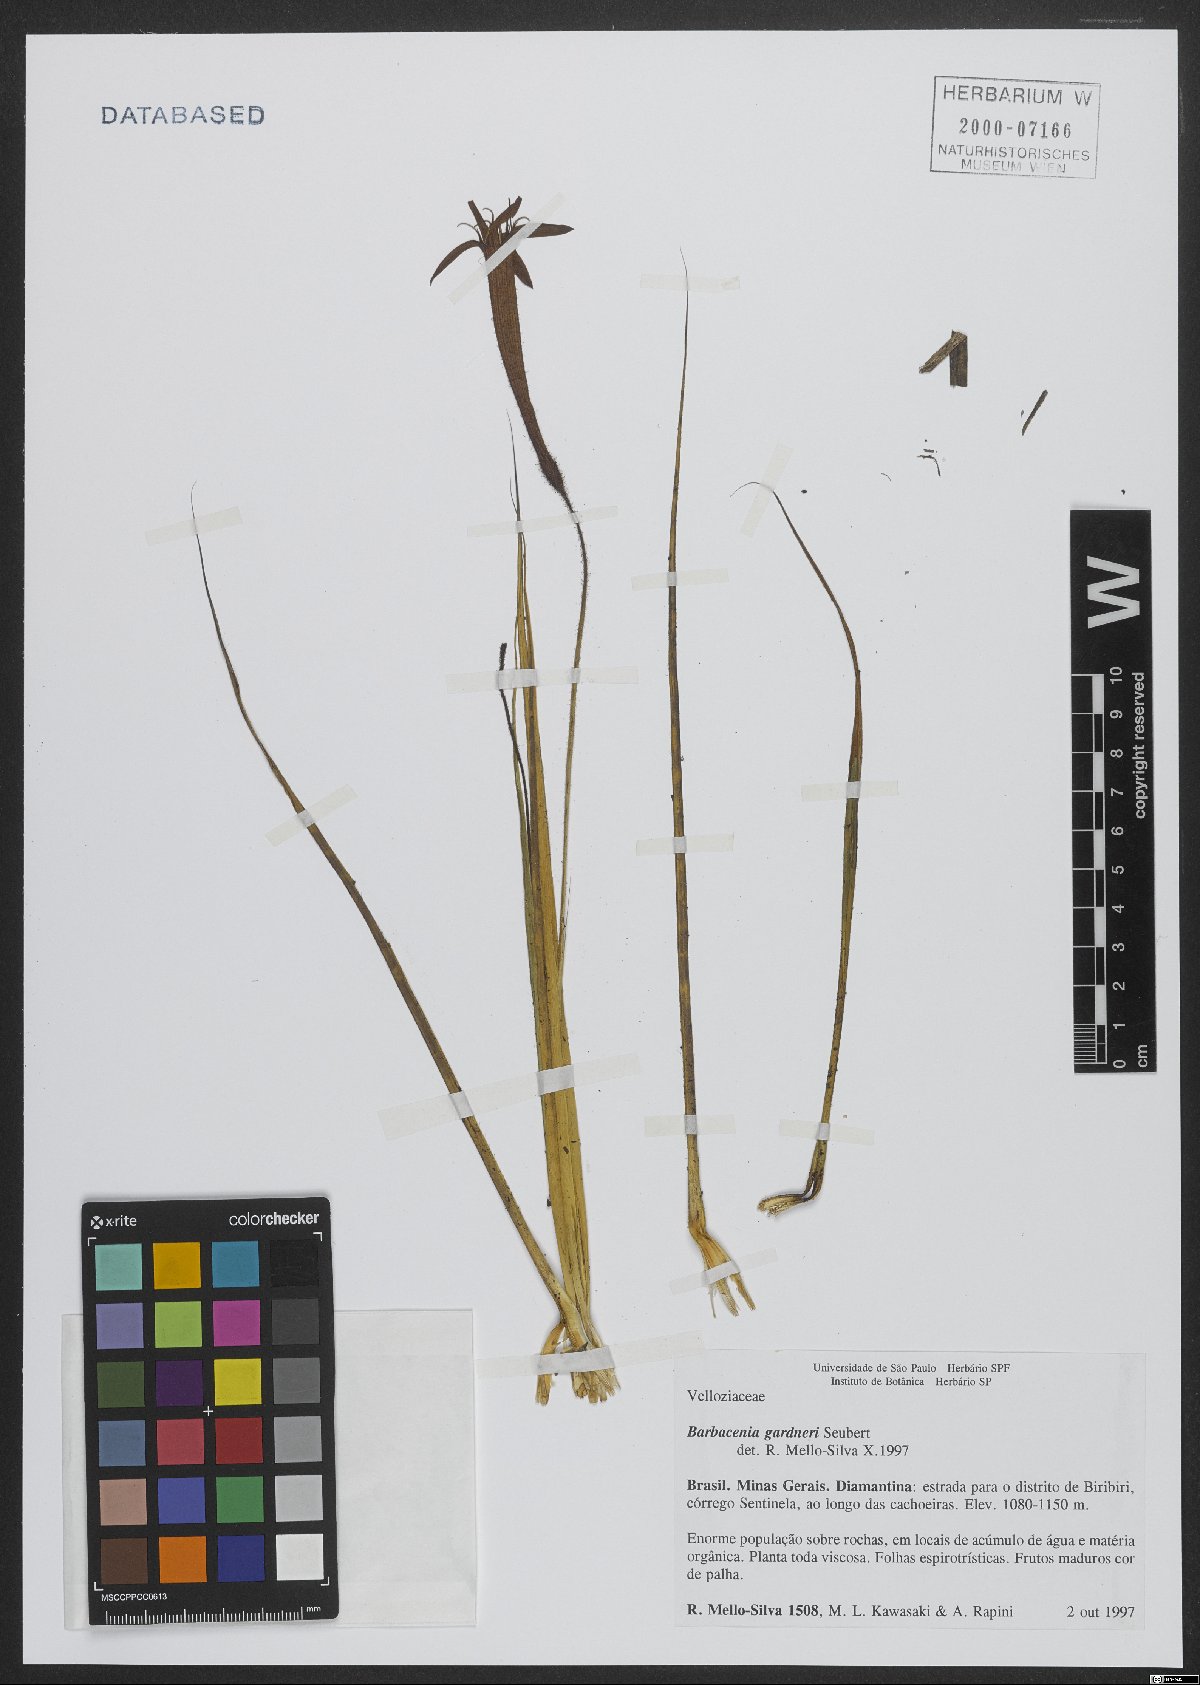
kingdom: Plantae
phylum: Tracheophyta
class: Liliopsida
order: Pandanales
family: Velloziaceae
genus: Barbacenia
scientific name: Barbacenia gardneri
